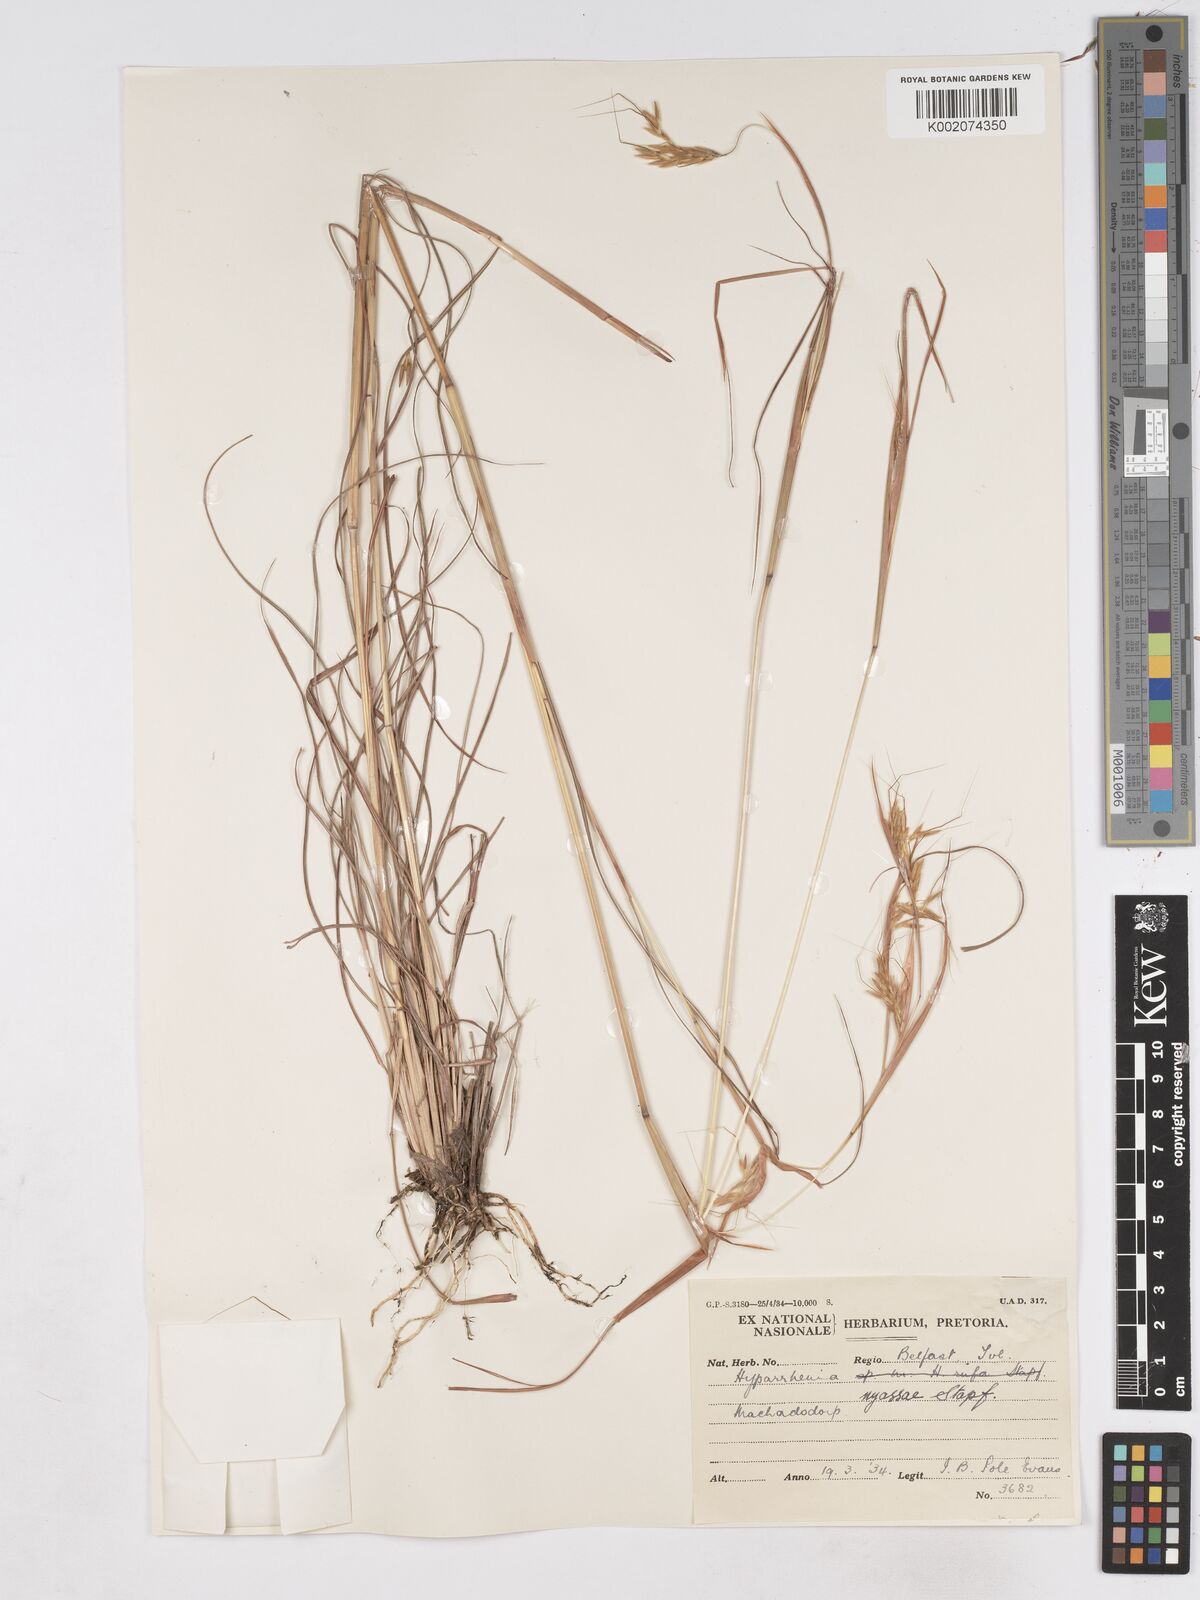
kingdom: Plantae
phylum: Tracheophyta
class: Liliopsida
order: Poales
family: Poaceae
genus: Hyparrhenia
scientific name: Hyparrhenia nyassae
